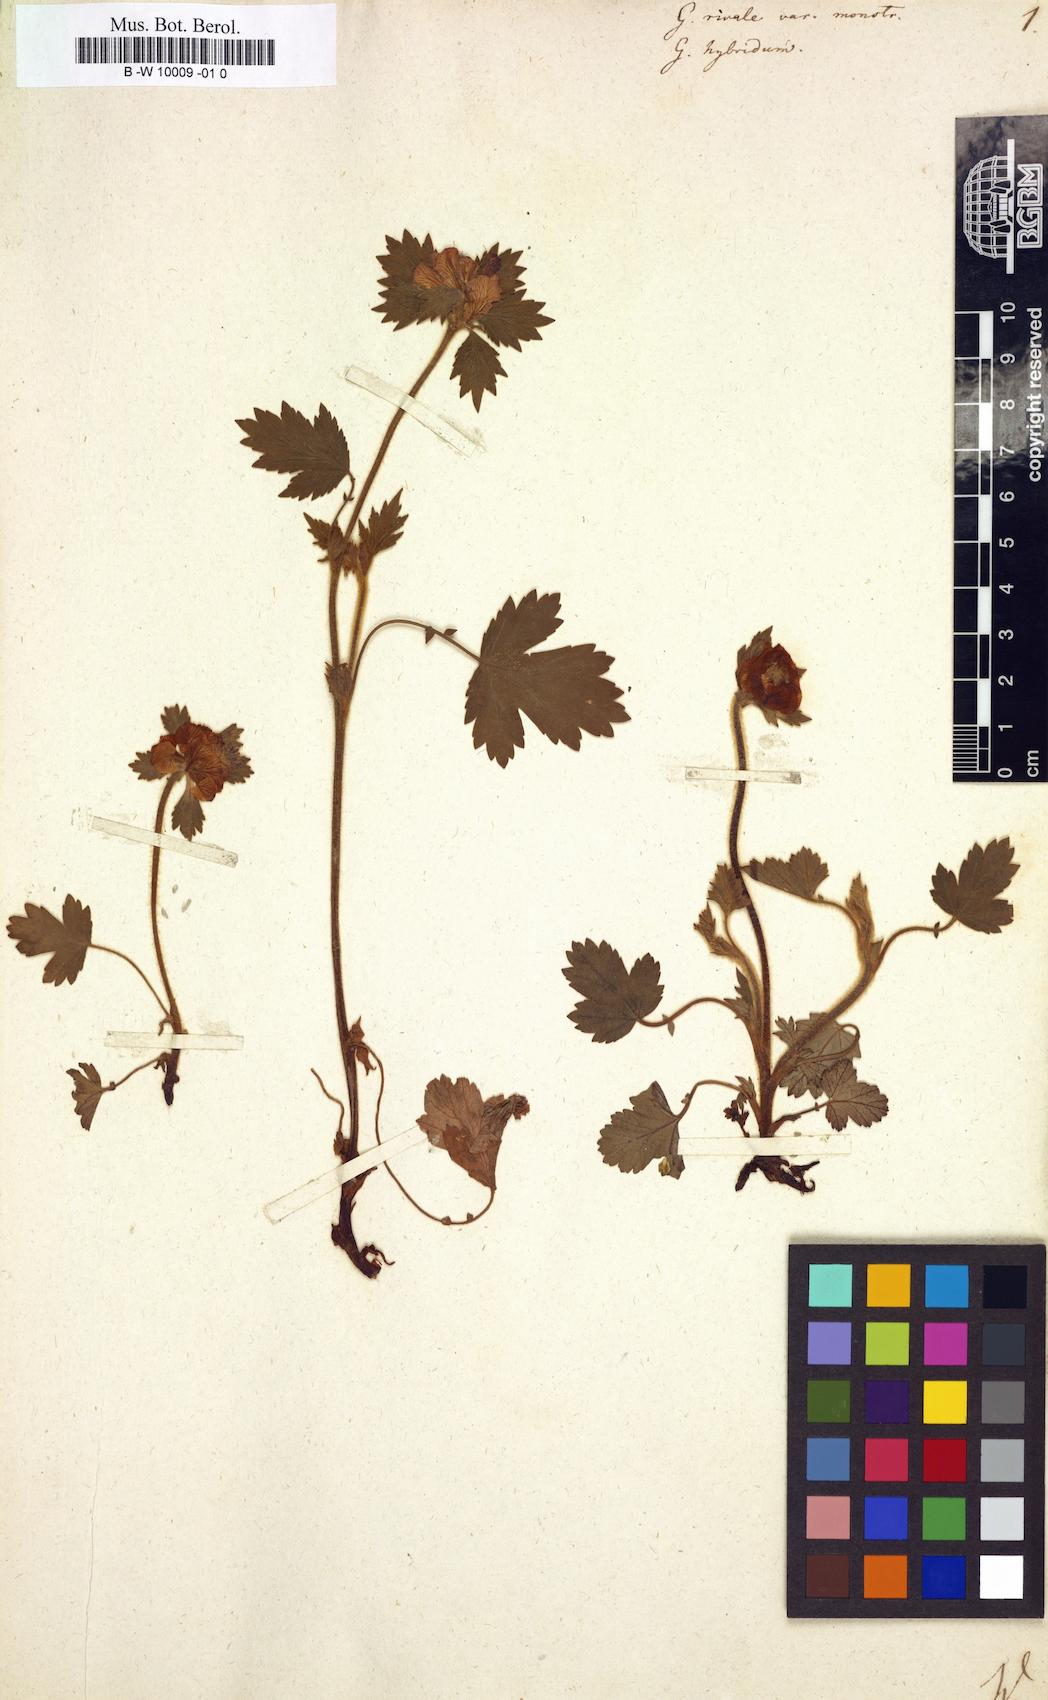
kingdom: Plantae
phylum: Tracheophyta
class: Magnoliopsida
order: Rosales
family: Rosaceae
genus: Geum
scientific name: Geum rivale
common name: Water avens
